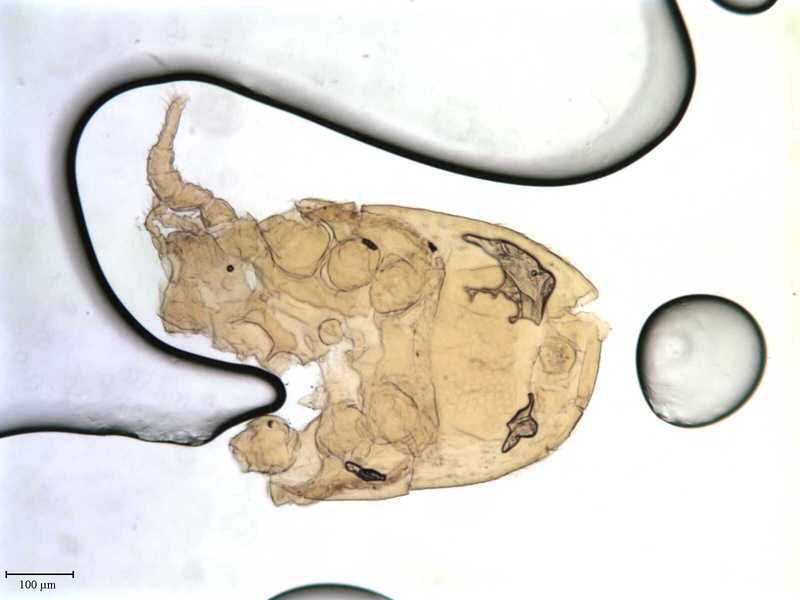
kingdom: Animalia
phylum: Arthropoda
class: Arachnida
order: Mesostigmata
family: Dithinozerconidae
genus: Uroseius
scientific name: Uroseius
